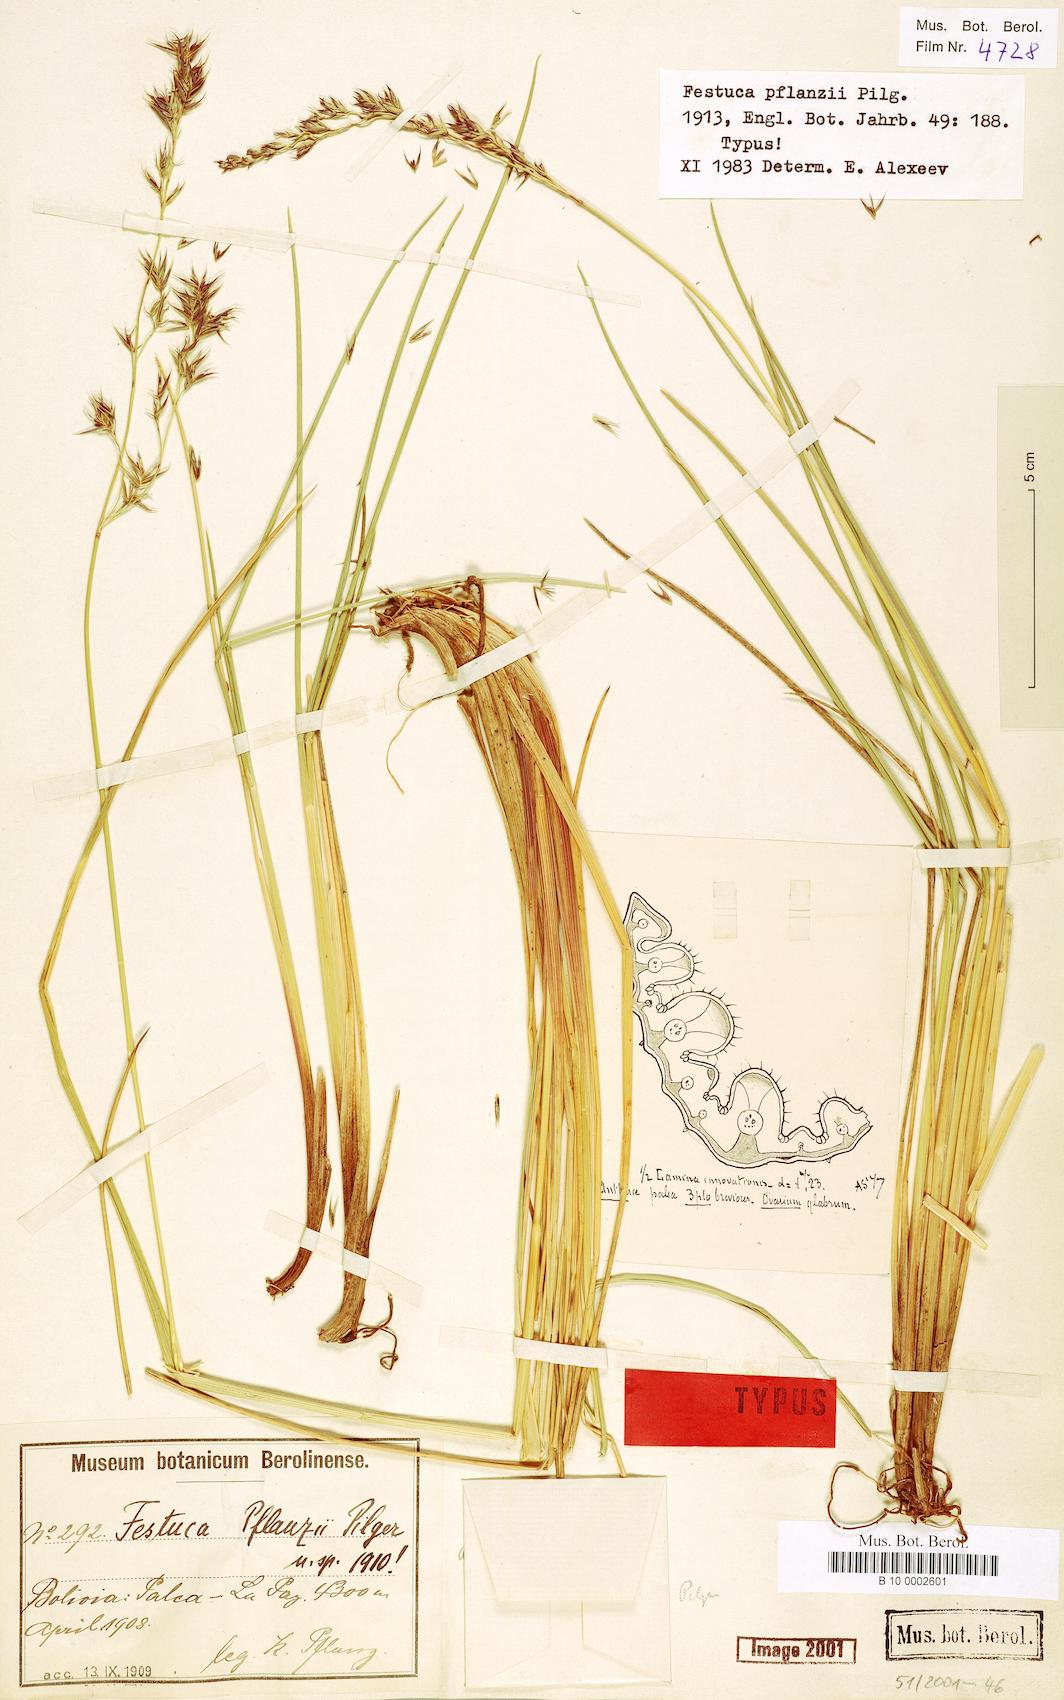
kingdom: Plantae
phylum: Tracheophyta
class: Liliopsida
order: Poales
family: Poaceae
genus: Festuca
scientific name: Festuca dolichophylla
